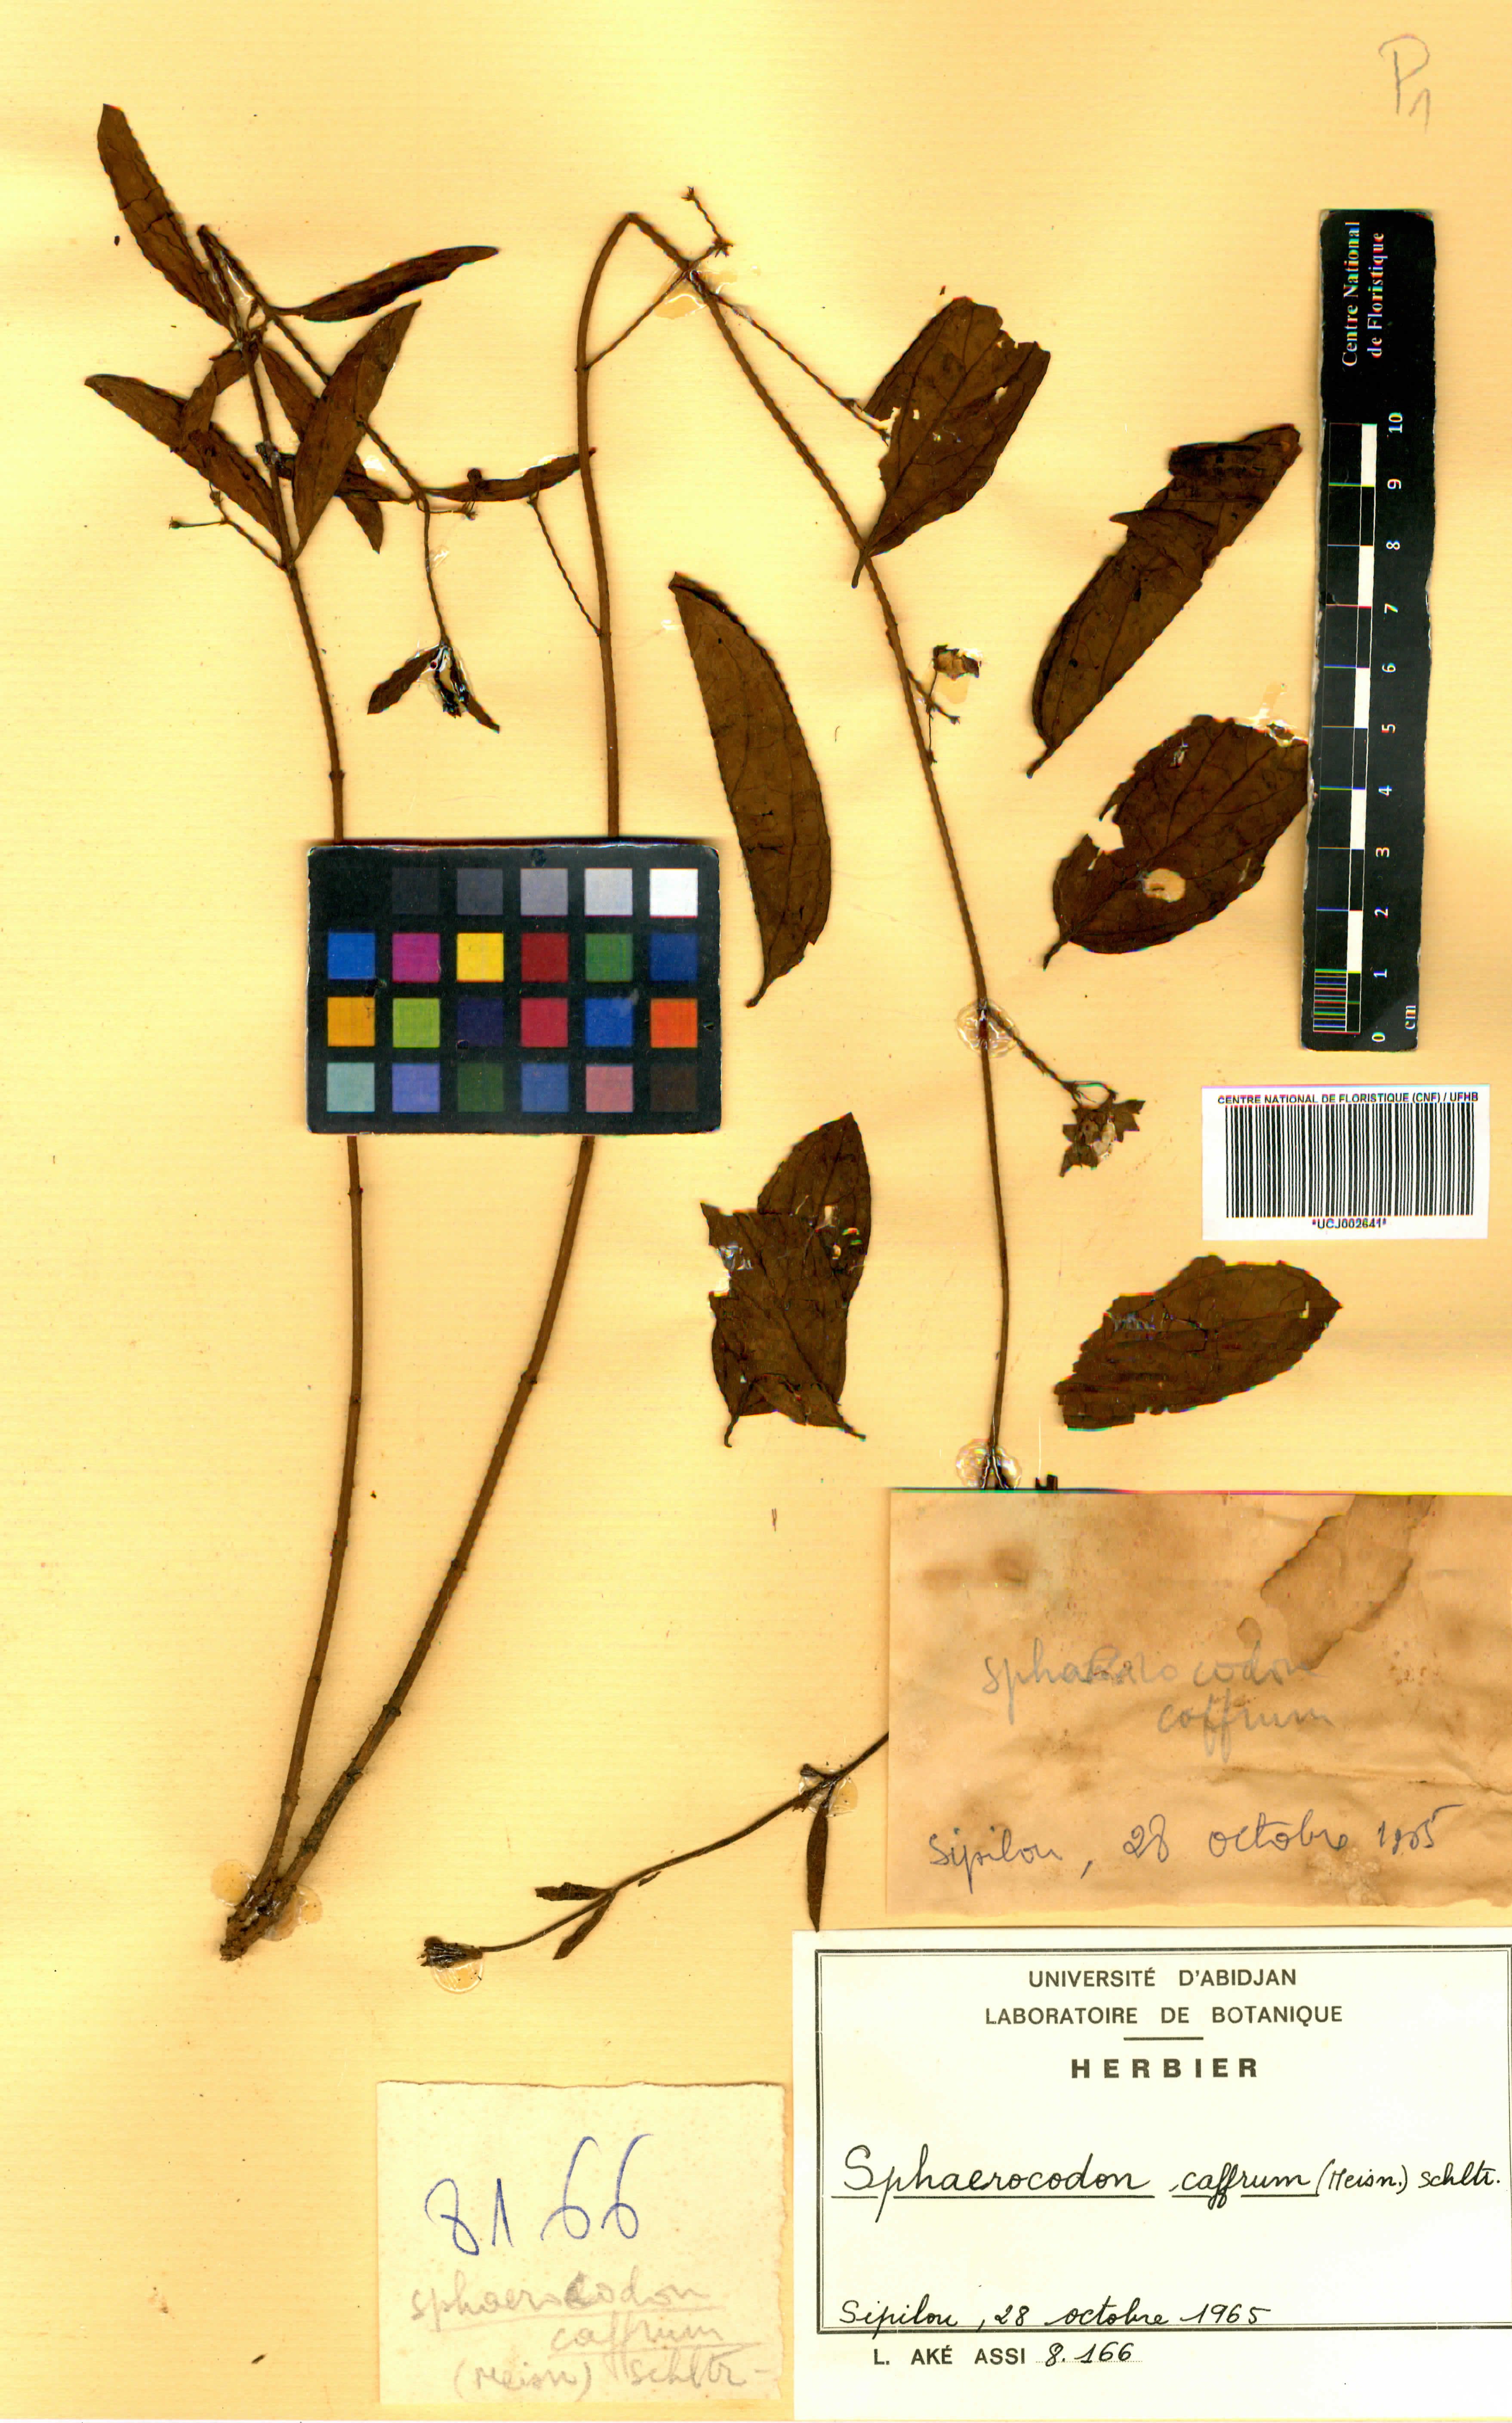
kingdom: Plantae
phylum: Tracheophyta
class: Magnoliopsida
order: Gentianales
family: Apocynaceae
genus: Vincetoxicum
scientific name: Vincetoxicum caffrum
